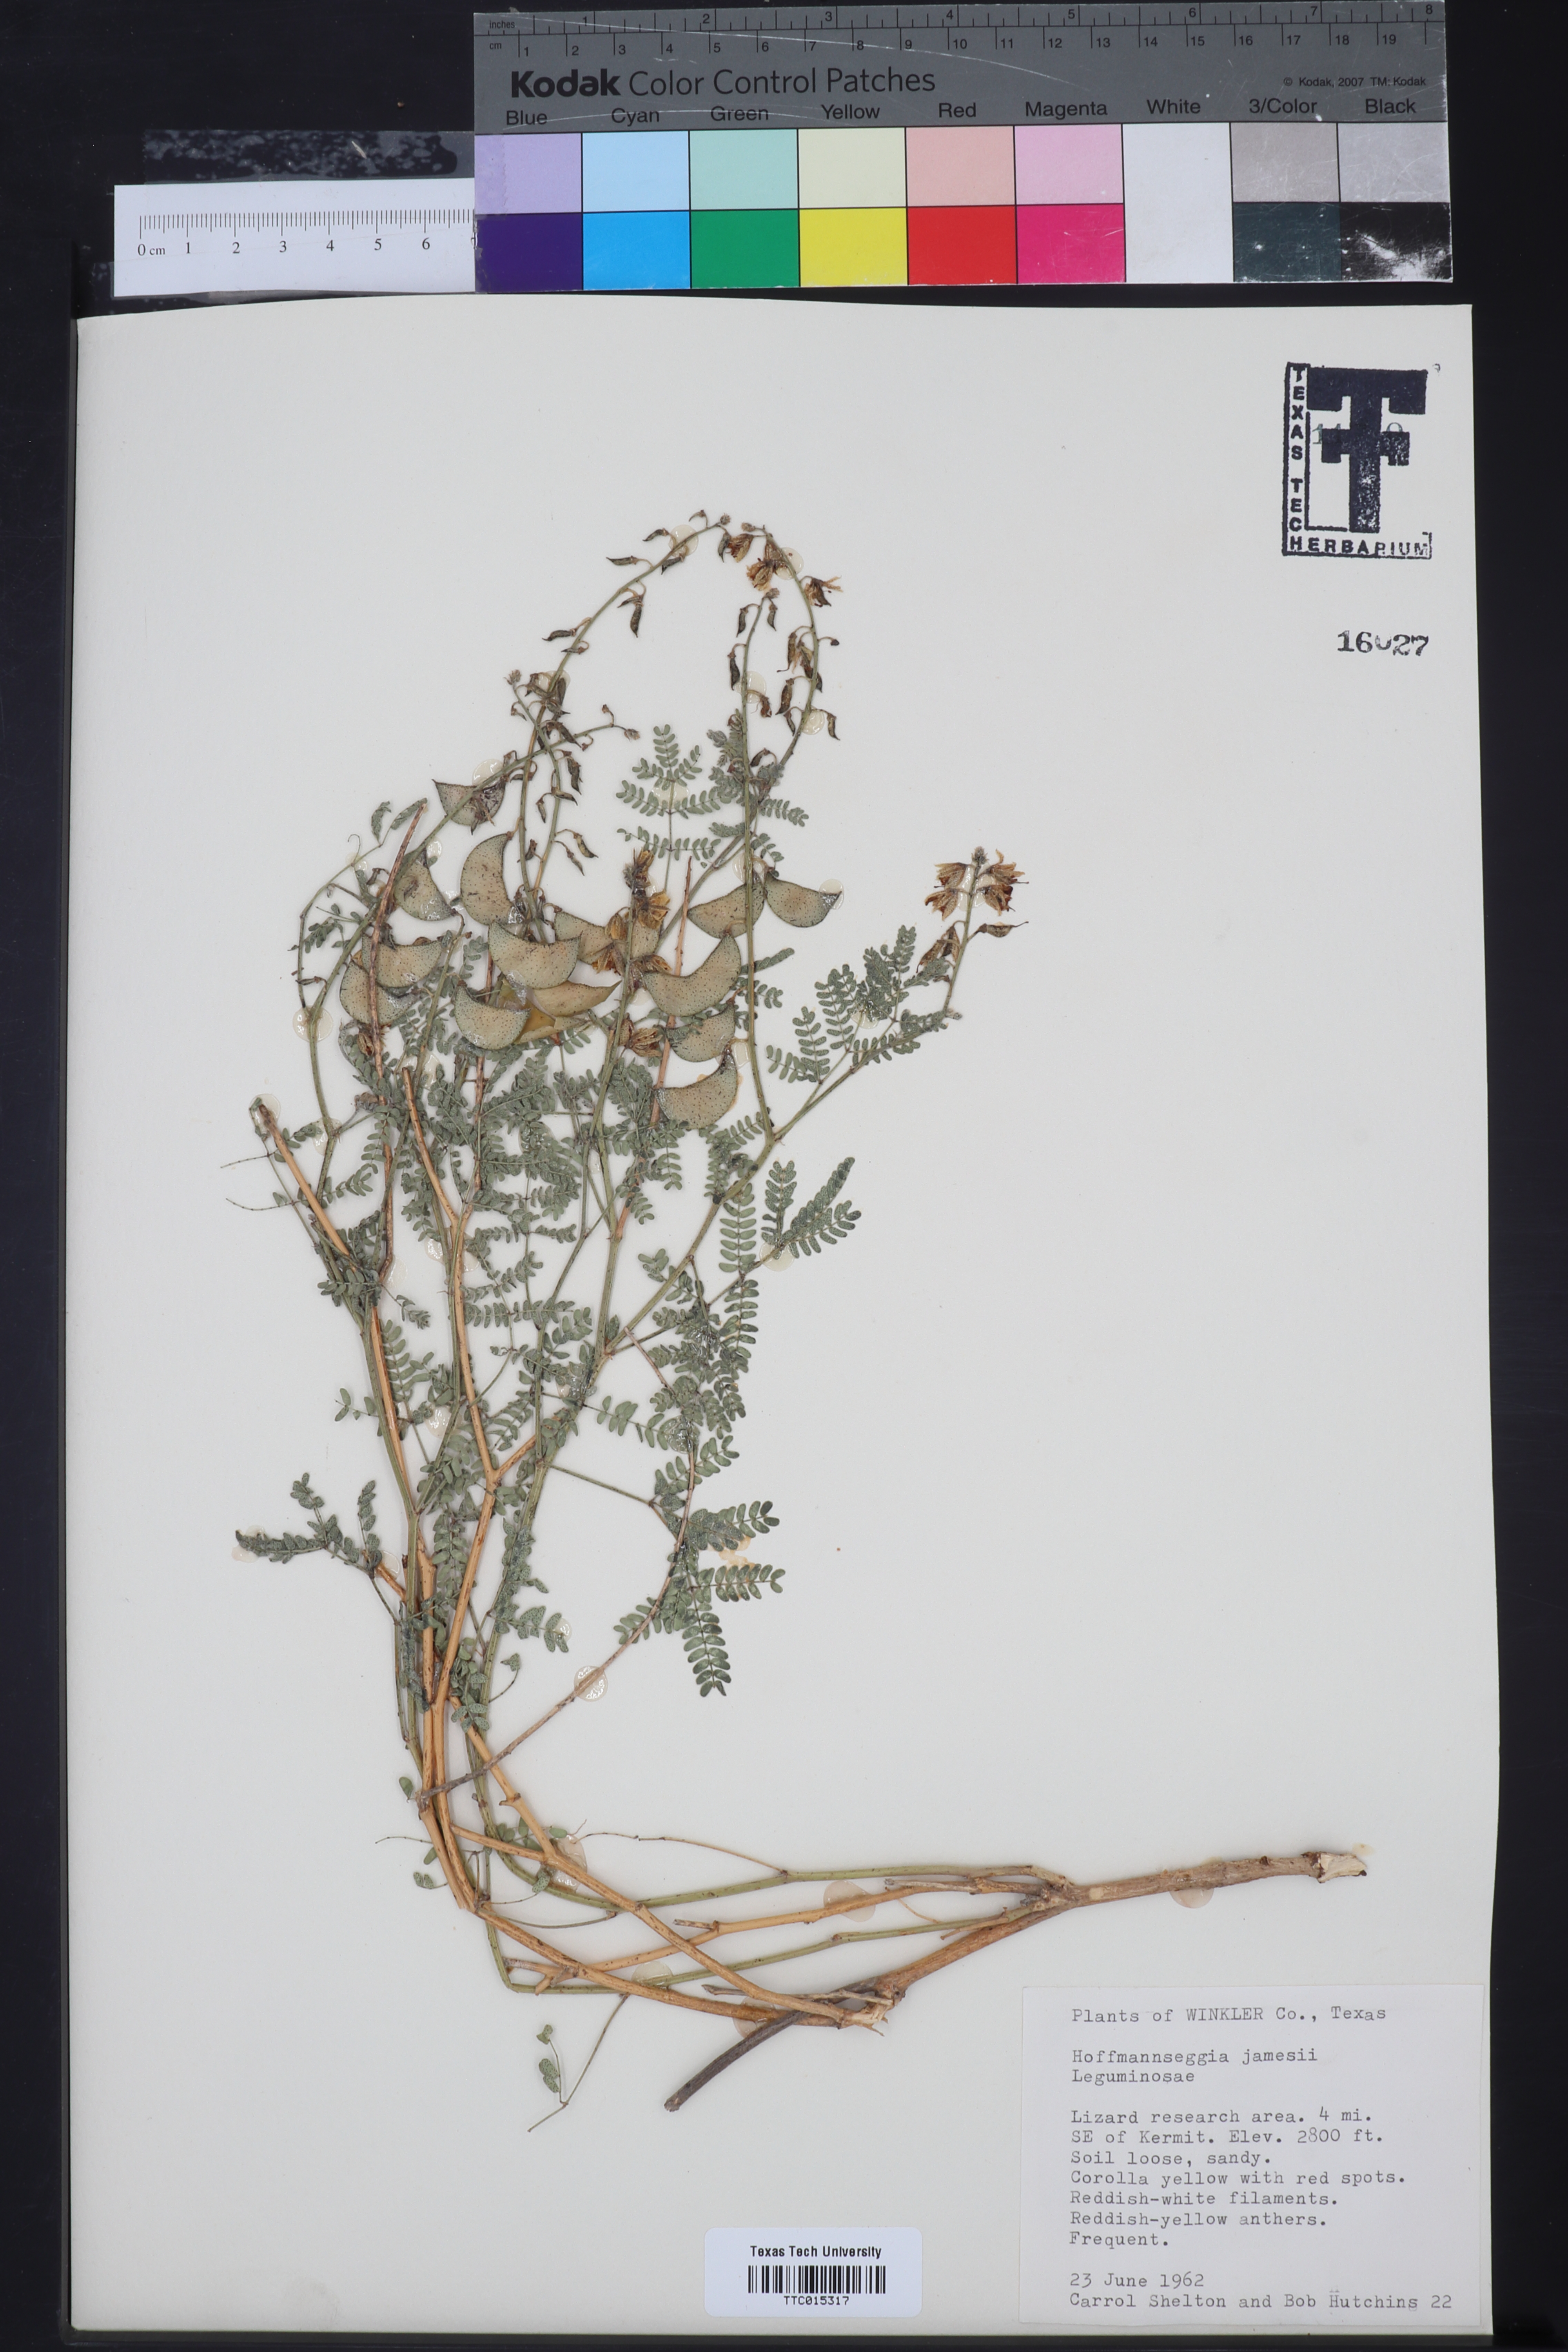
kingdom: Plantae
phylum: Tracheophyta
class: Magnoliopsida
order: Fabales
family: Fabaceae
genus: Pomaria
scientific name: Pomaria jamesii
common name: James' caesalpinia
